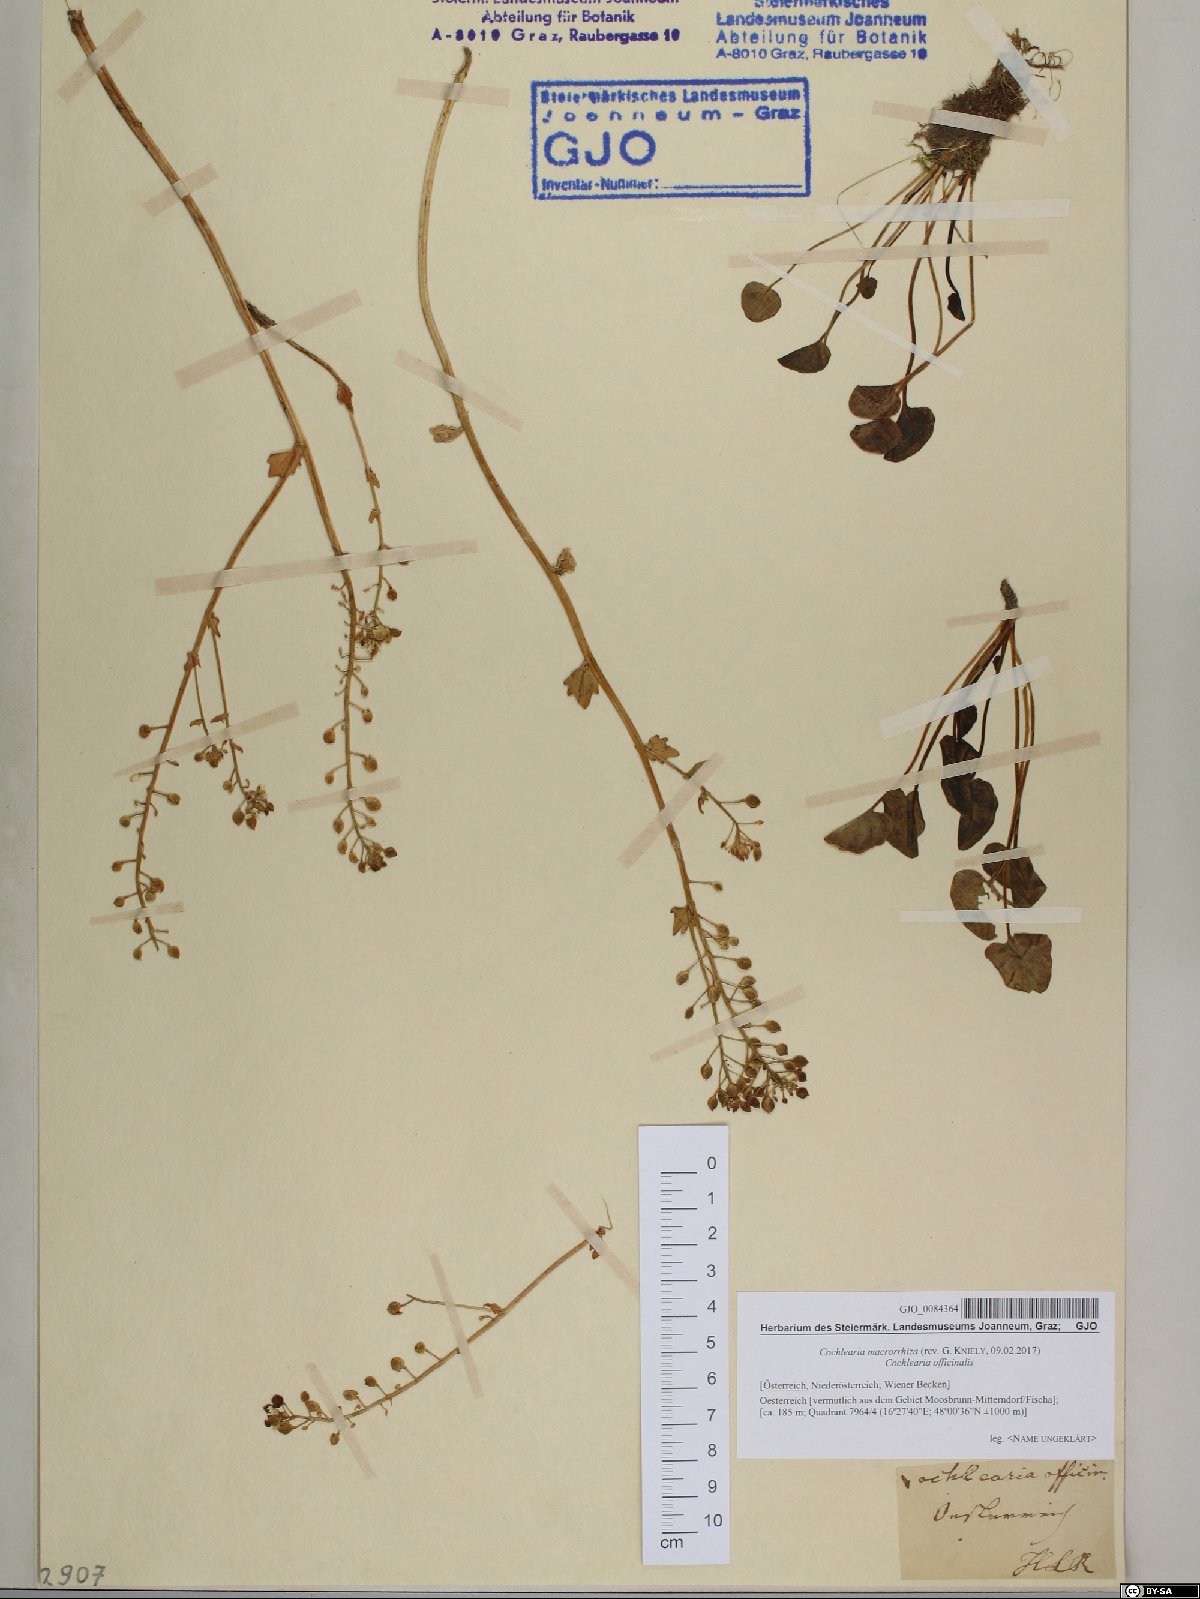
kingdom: Plantae
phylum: Tracheophyta
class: Magnoliopsida
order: Brassicales
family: Brassicaceae
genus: Cochlearia
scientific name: Cochlearia pyrenaica
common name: Upland scurvy-grass
